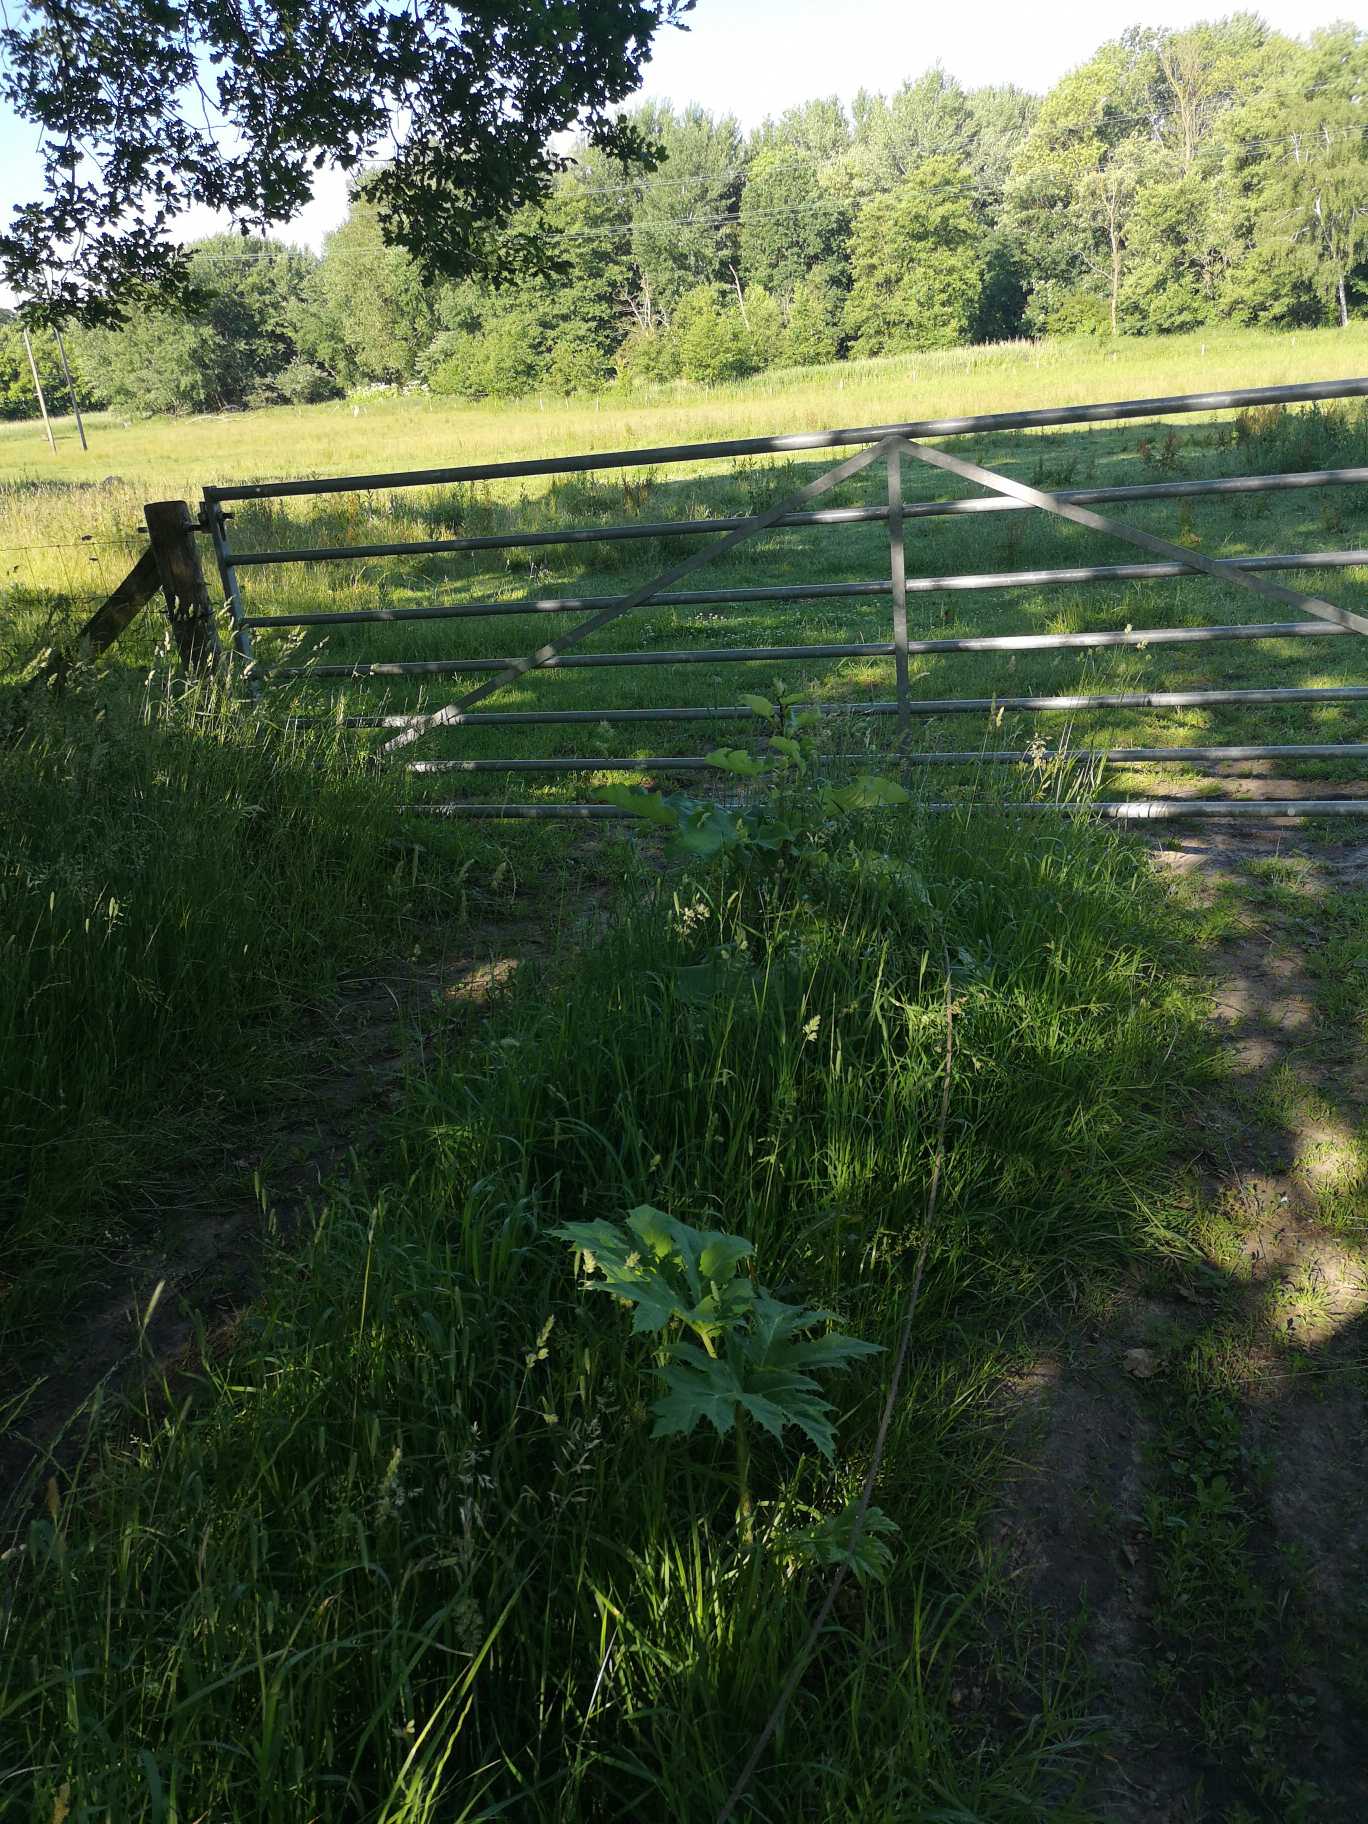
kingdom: Plantae
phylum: Tracheophyta
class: Magnoliopsida
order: Apiales
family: Apiaceae
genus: Heracleum
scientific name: Heracleum mantegazzianum
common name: Kæmpe-bjørneklo
